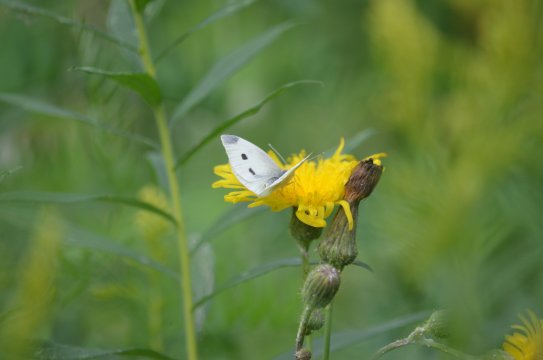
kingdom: Animalia
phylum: Arthropoda
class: Insecta
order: Lepidoptera
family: Pieridae
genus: Pieris
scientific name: Pieris rapae
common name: Cabbage White
